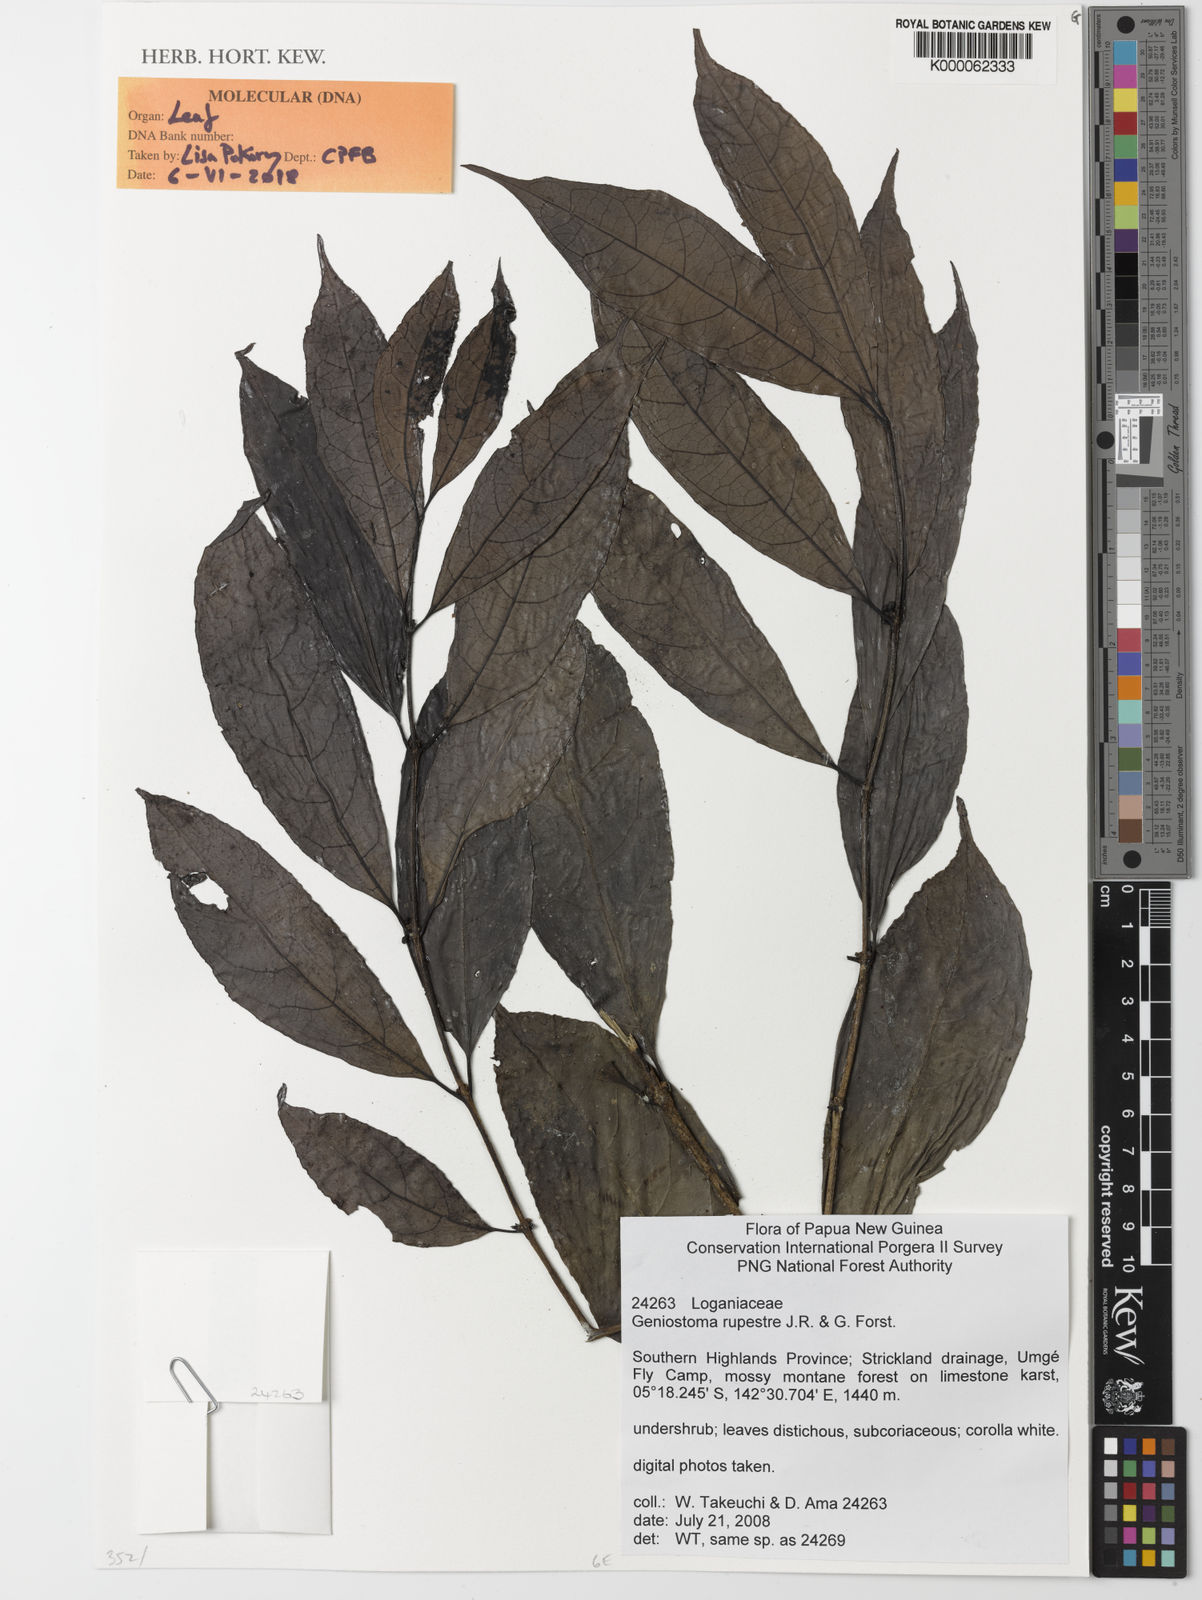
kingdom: Plantae
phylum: Tracheophyta
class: Magnoliopsida
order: Gentianales
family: Loganiaceae
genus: Geniostoma
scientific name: Geniostoma rupestre
